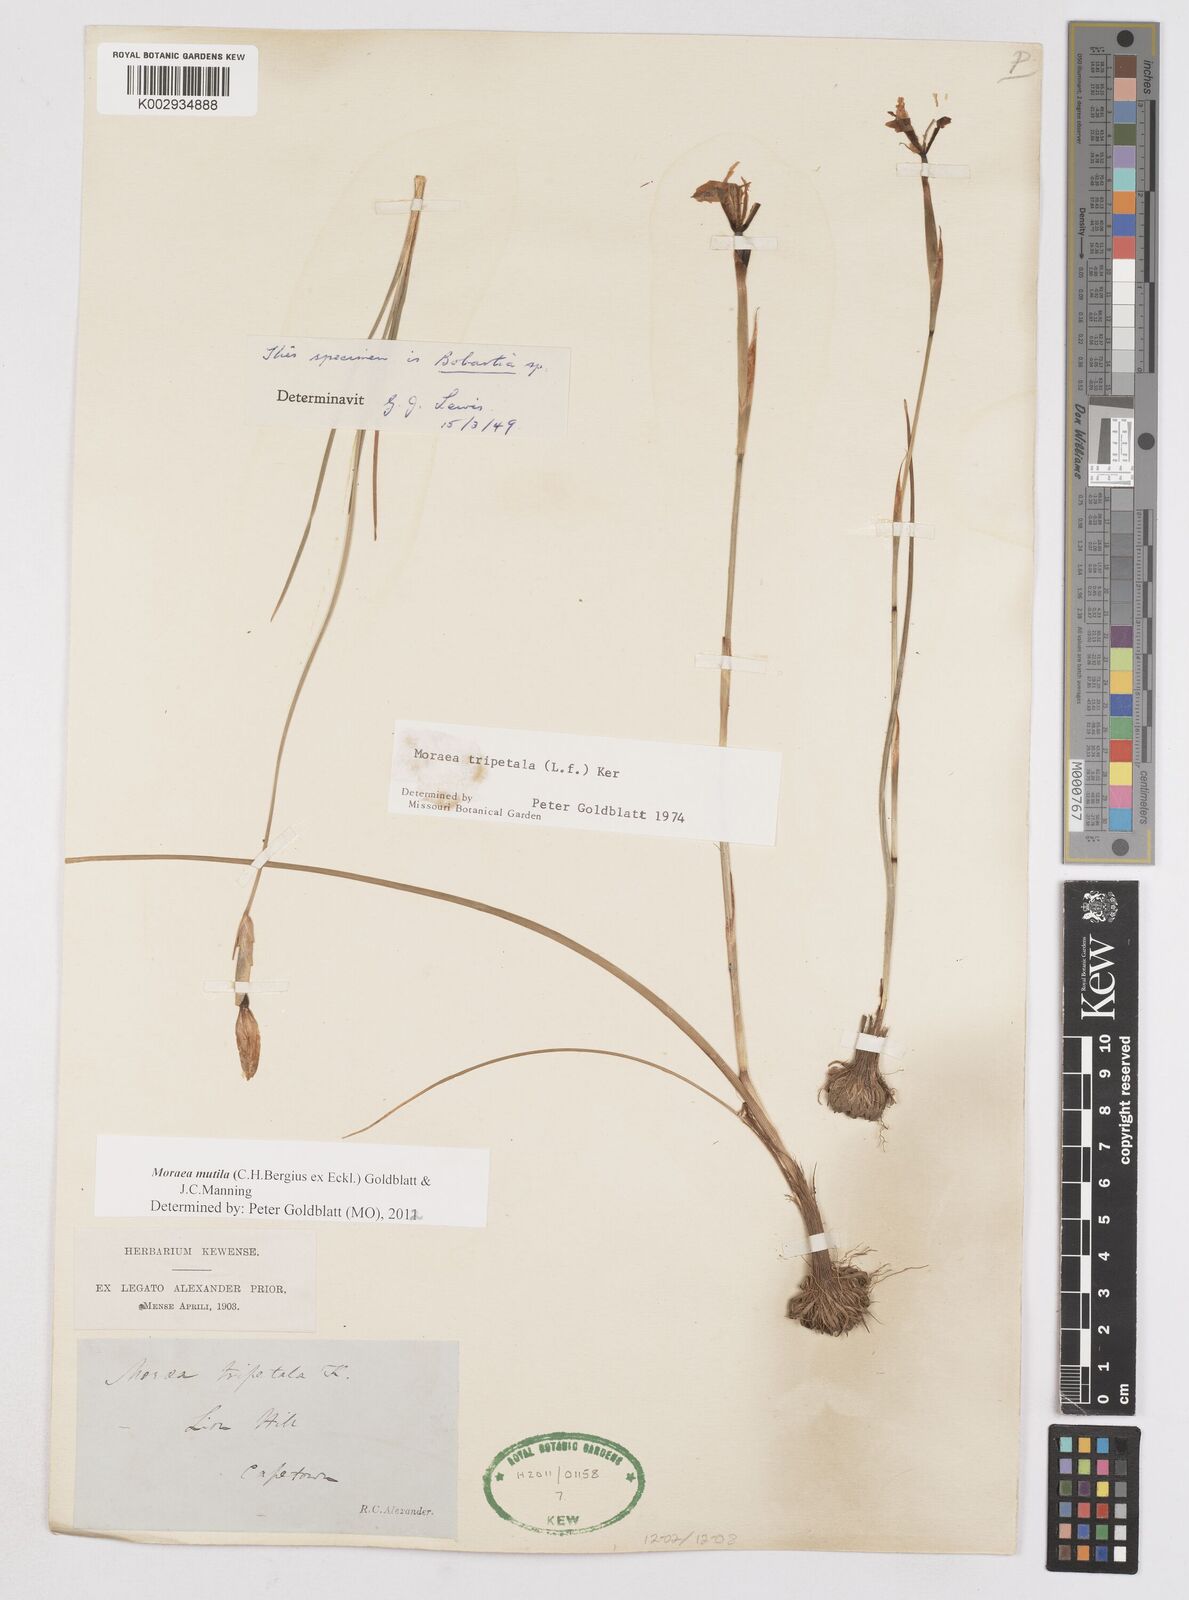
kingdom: Plantae
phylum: Tracheophyta
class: Liliopsida
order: Asparagales
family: Iridaceae
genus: Moraea
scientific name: Moraea punctata
